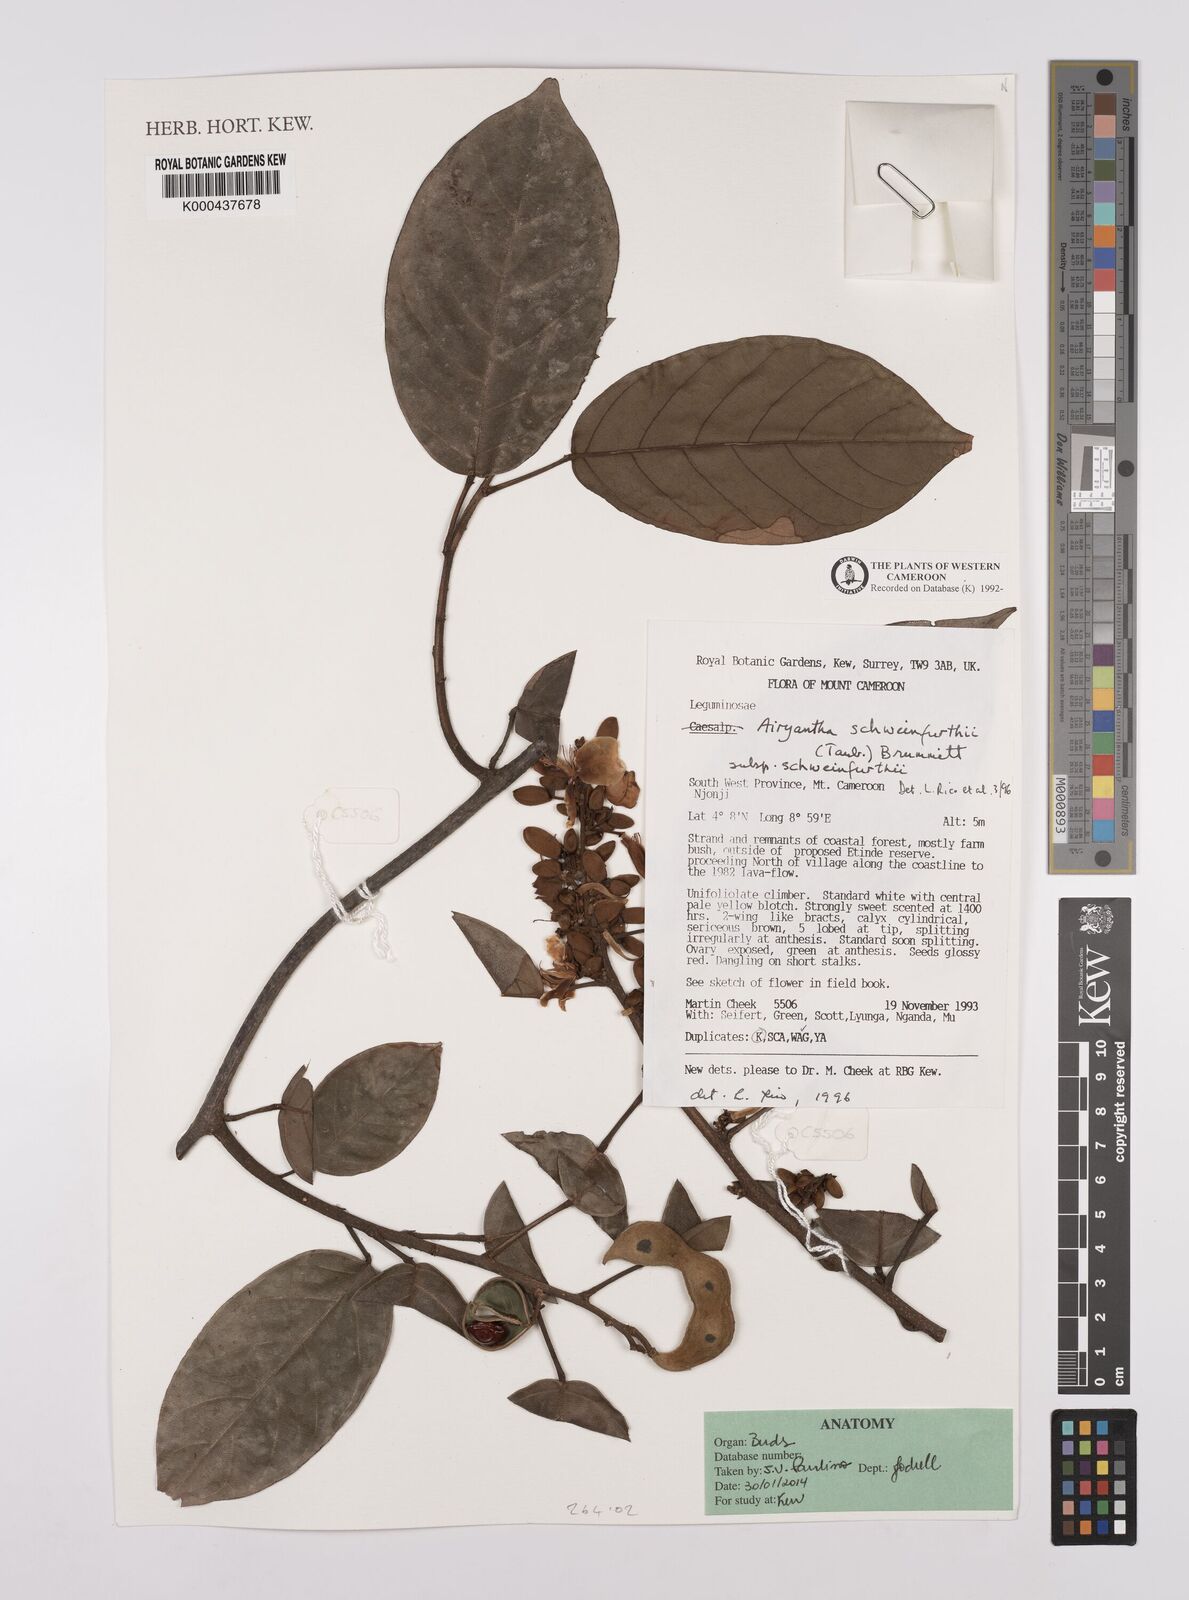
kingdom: Plantae
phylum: Tracheophyta
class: Magnoliopsida
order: Fabales
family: Fabaceae
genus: Airyantha
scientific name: Airyantha schweinfurthii
